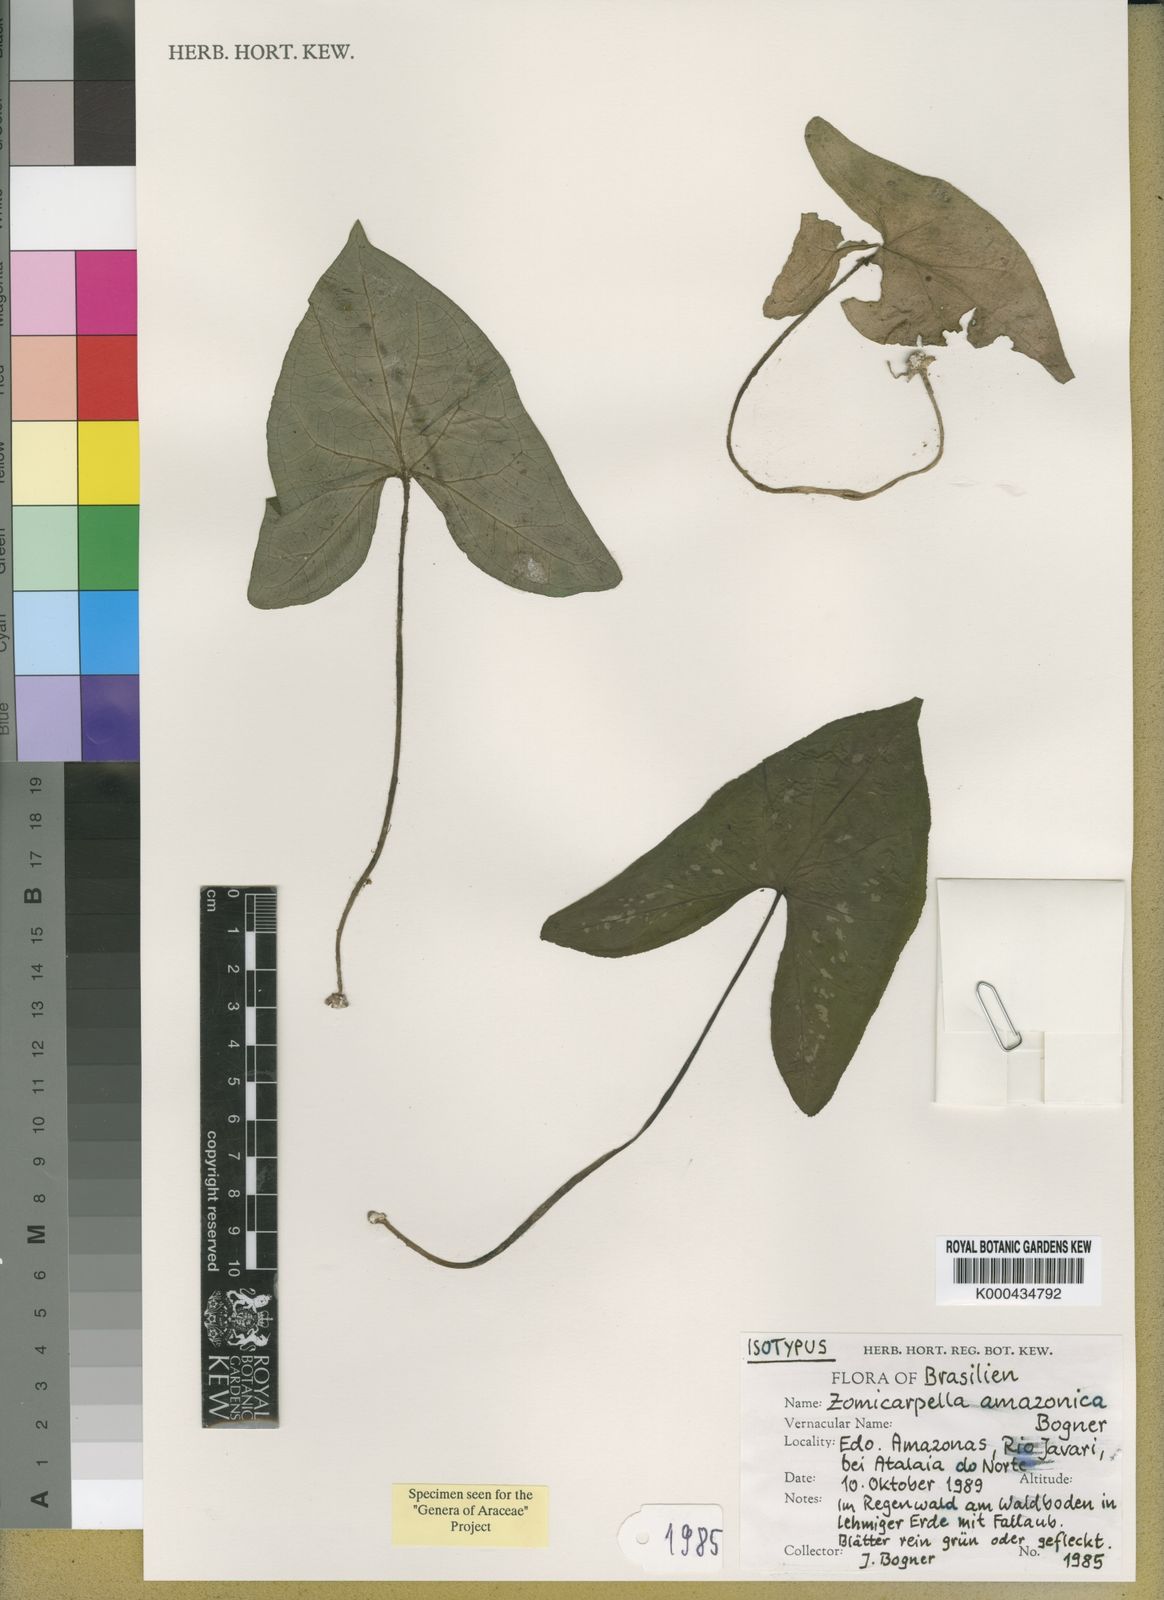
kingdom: Plantae
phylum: Tracheophyta
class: Liliopsida
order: Alismatales
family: Araceae
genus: Zomicarpella
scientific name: Zomicarpella amazonica
